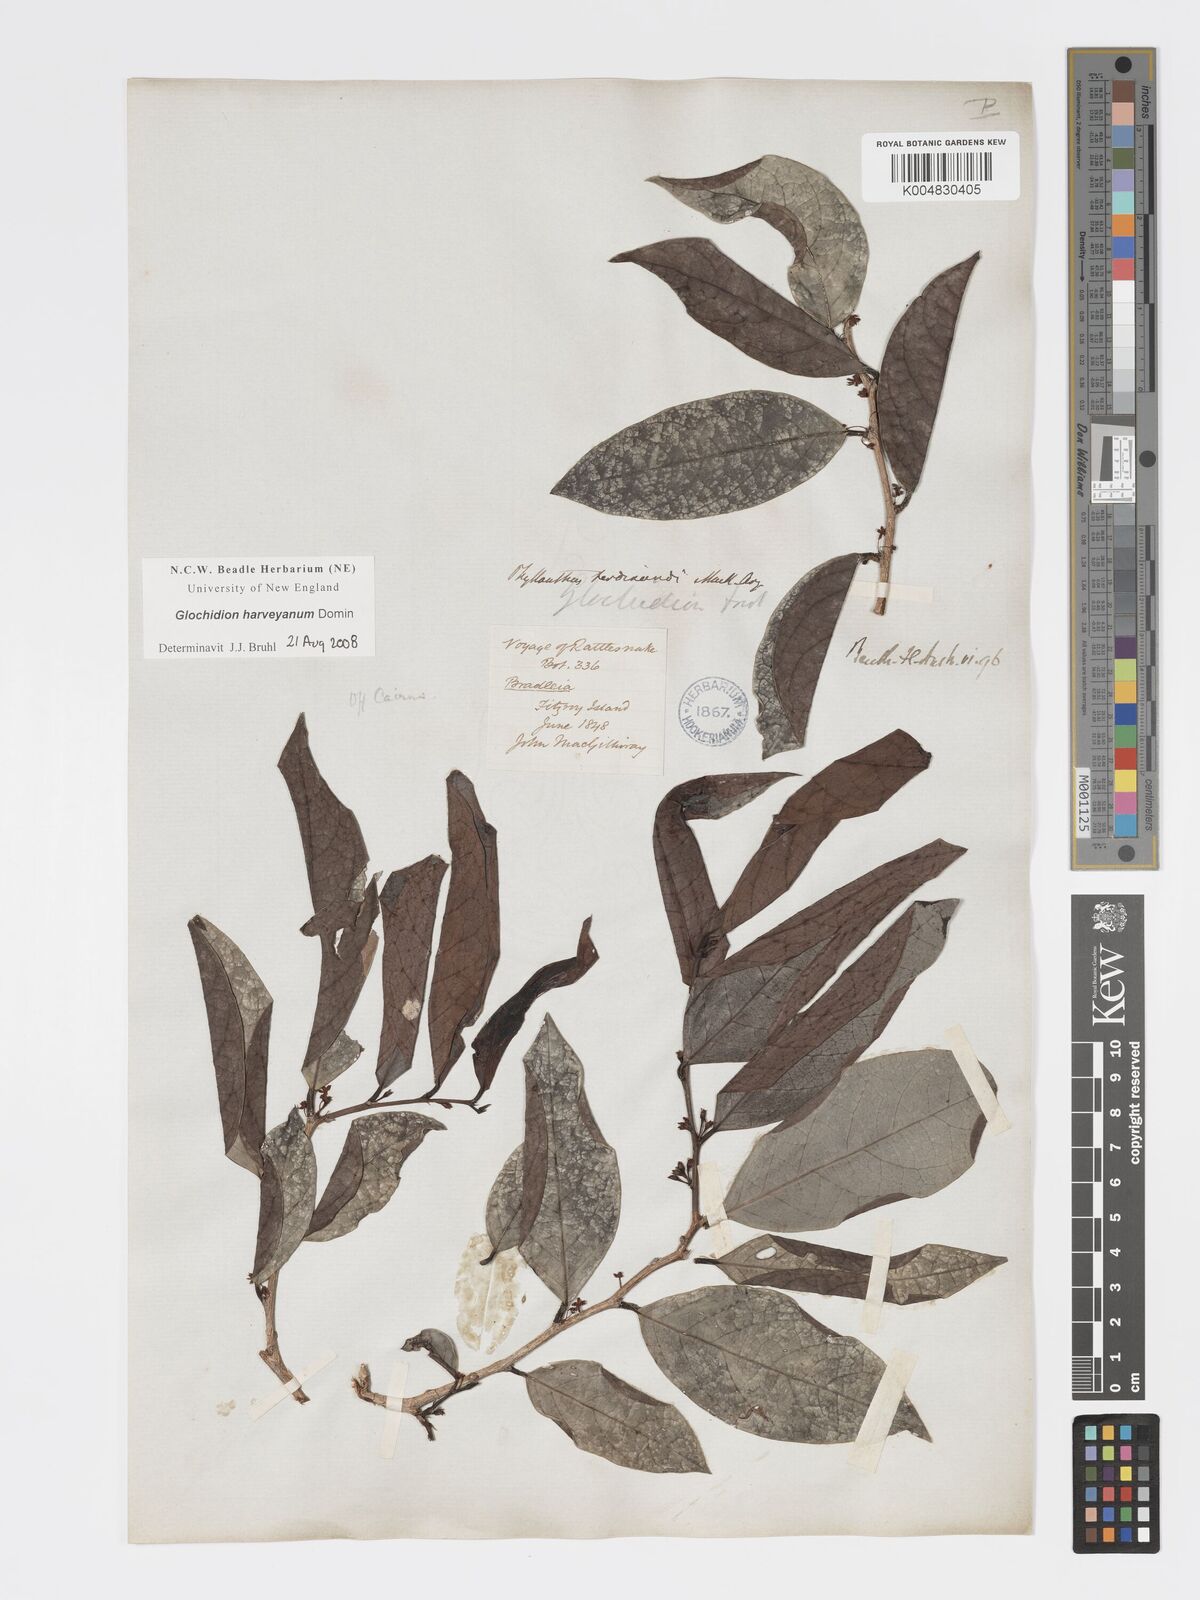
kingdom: Plantae
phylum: Tracheophyta
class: Magnoliopsida
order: Malpighiales
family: Phyllanthaceae
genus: Glochidion
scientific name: Glochidion harveyanum
